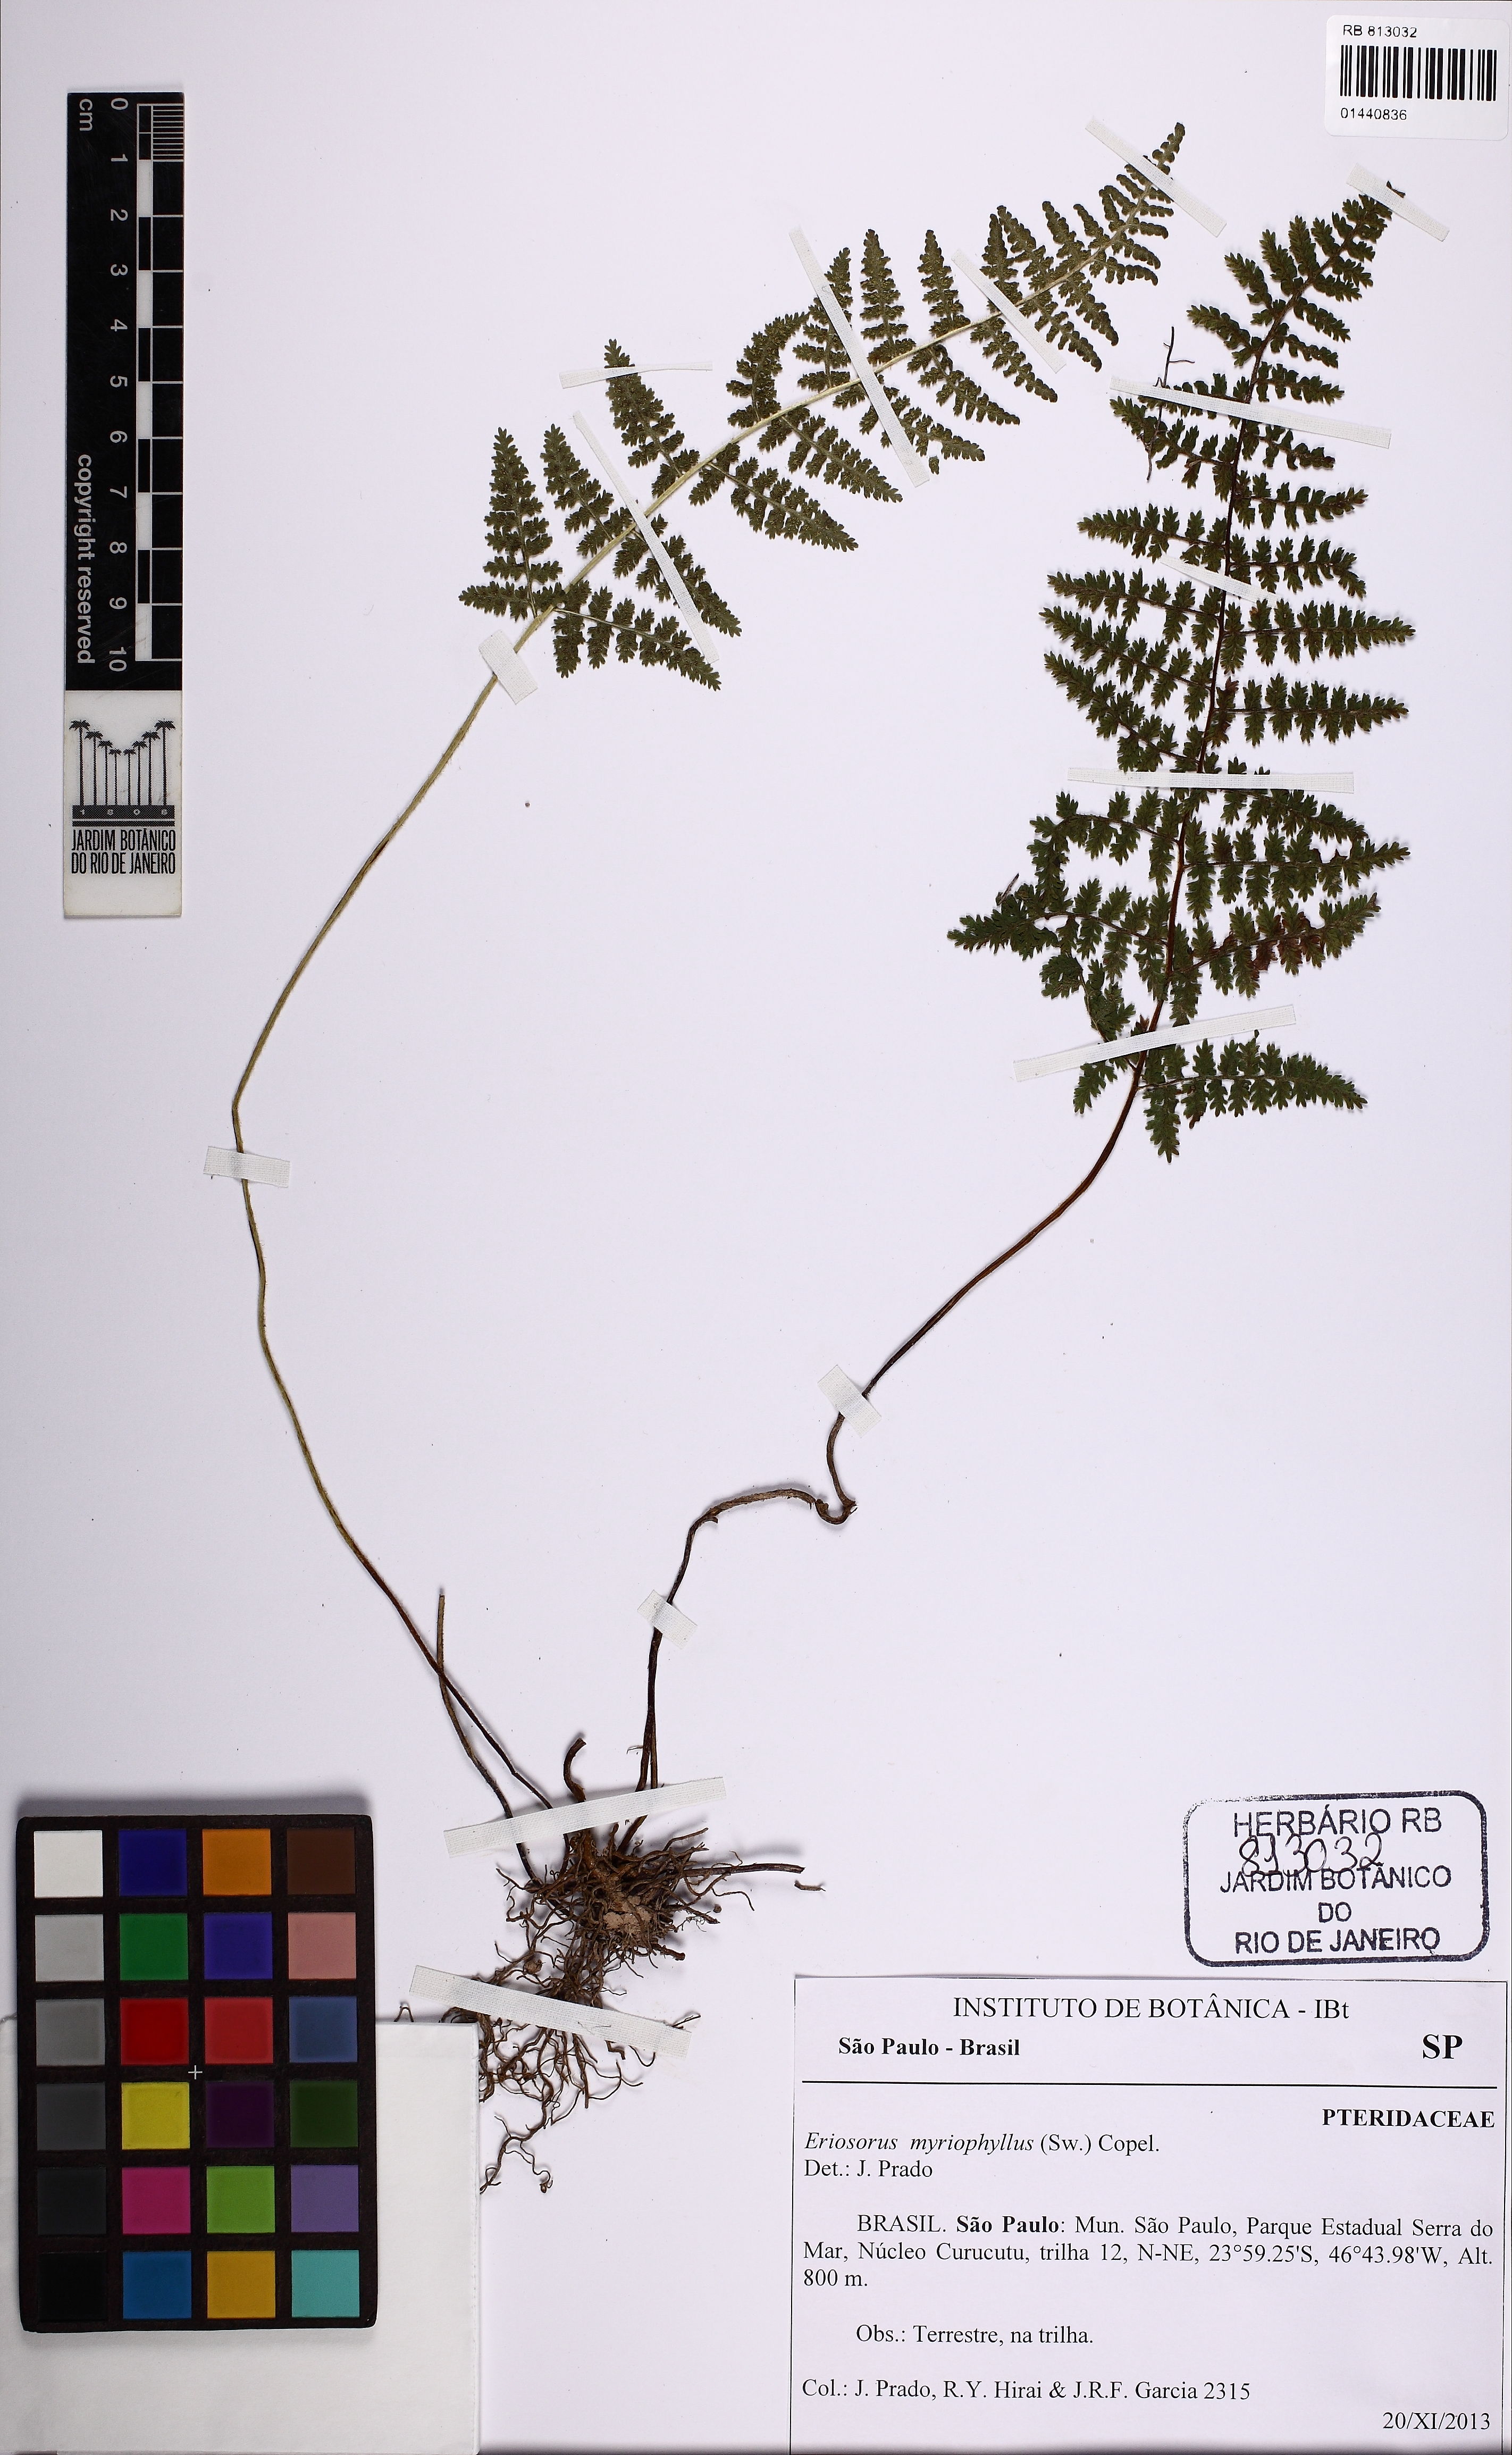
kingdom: Plantae
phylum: Tracheophyta
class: Polypodiopsida
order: Polypodiales
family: Pteridaceae
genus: Tryonia
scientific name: Tryonia myriophylla
